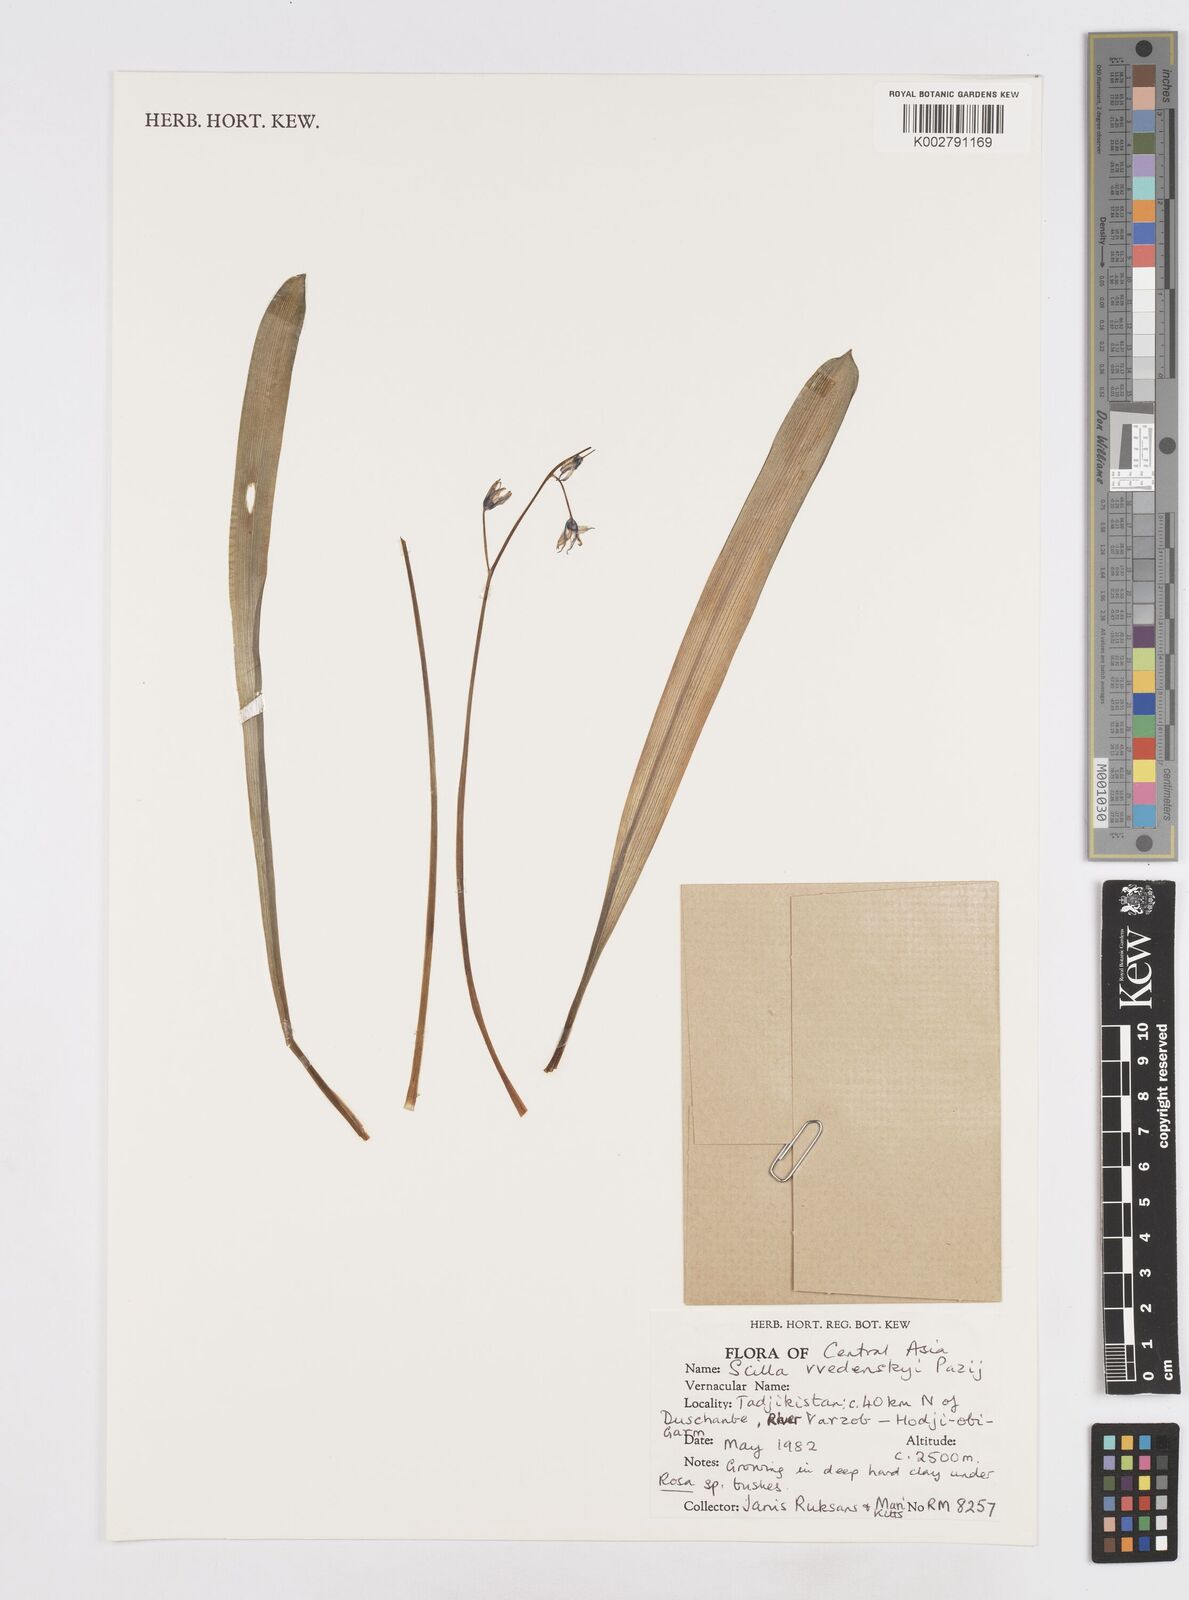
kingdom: Plantae
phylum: Tracheophyta
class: Liliopsida
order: Asparagales
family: Asparagaceae
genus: Fessia
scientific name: Fessia vvedenskyi
